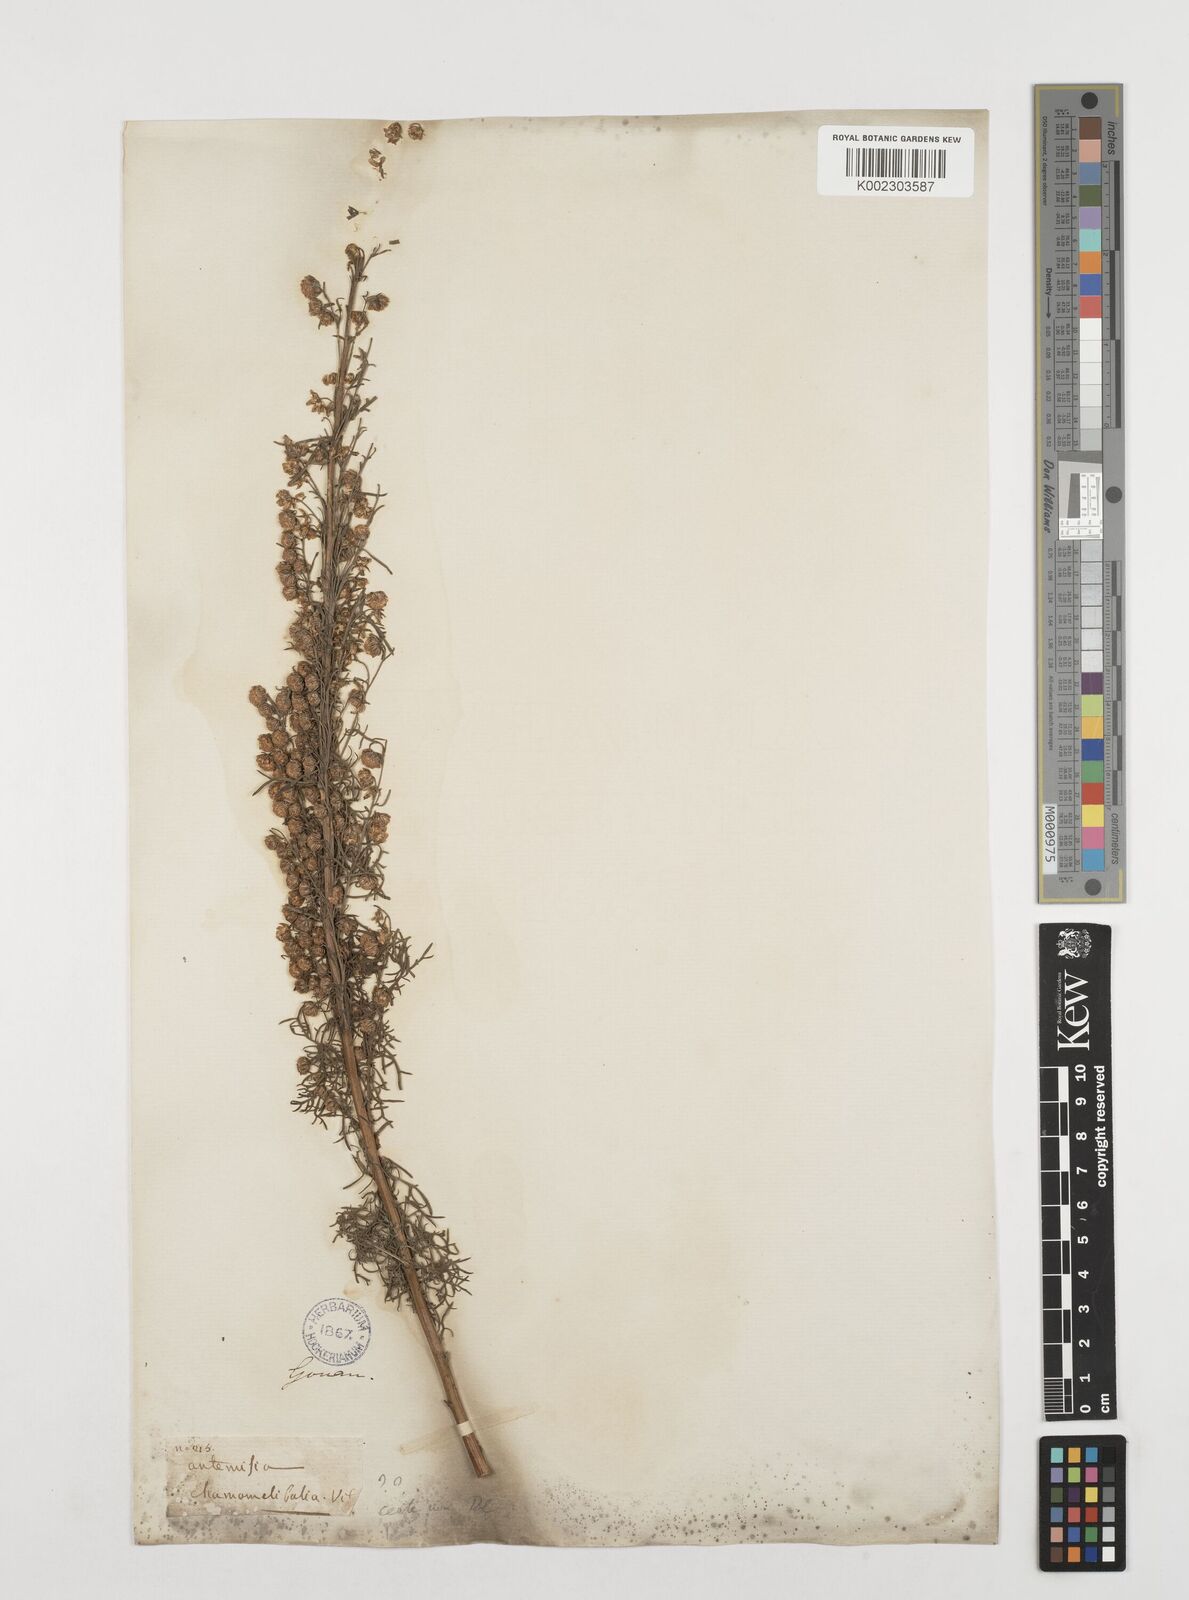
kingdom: Plantae
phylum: Tracheophyta
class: Magnoliopsida
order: Asterales
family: Asteraceae
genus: Artemisia
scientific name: Artemisia chamaemelifolia
